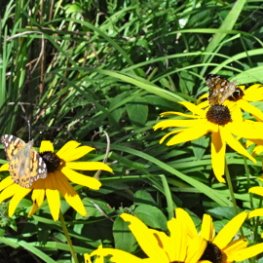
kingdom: Animalia
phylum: Arthropoda
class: Insecta
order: Lepidoptera
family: Nymphalidae
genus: Vanessa
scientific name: Vanessa cardui
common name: Painted Lady
